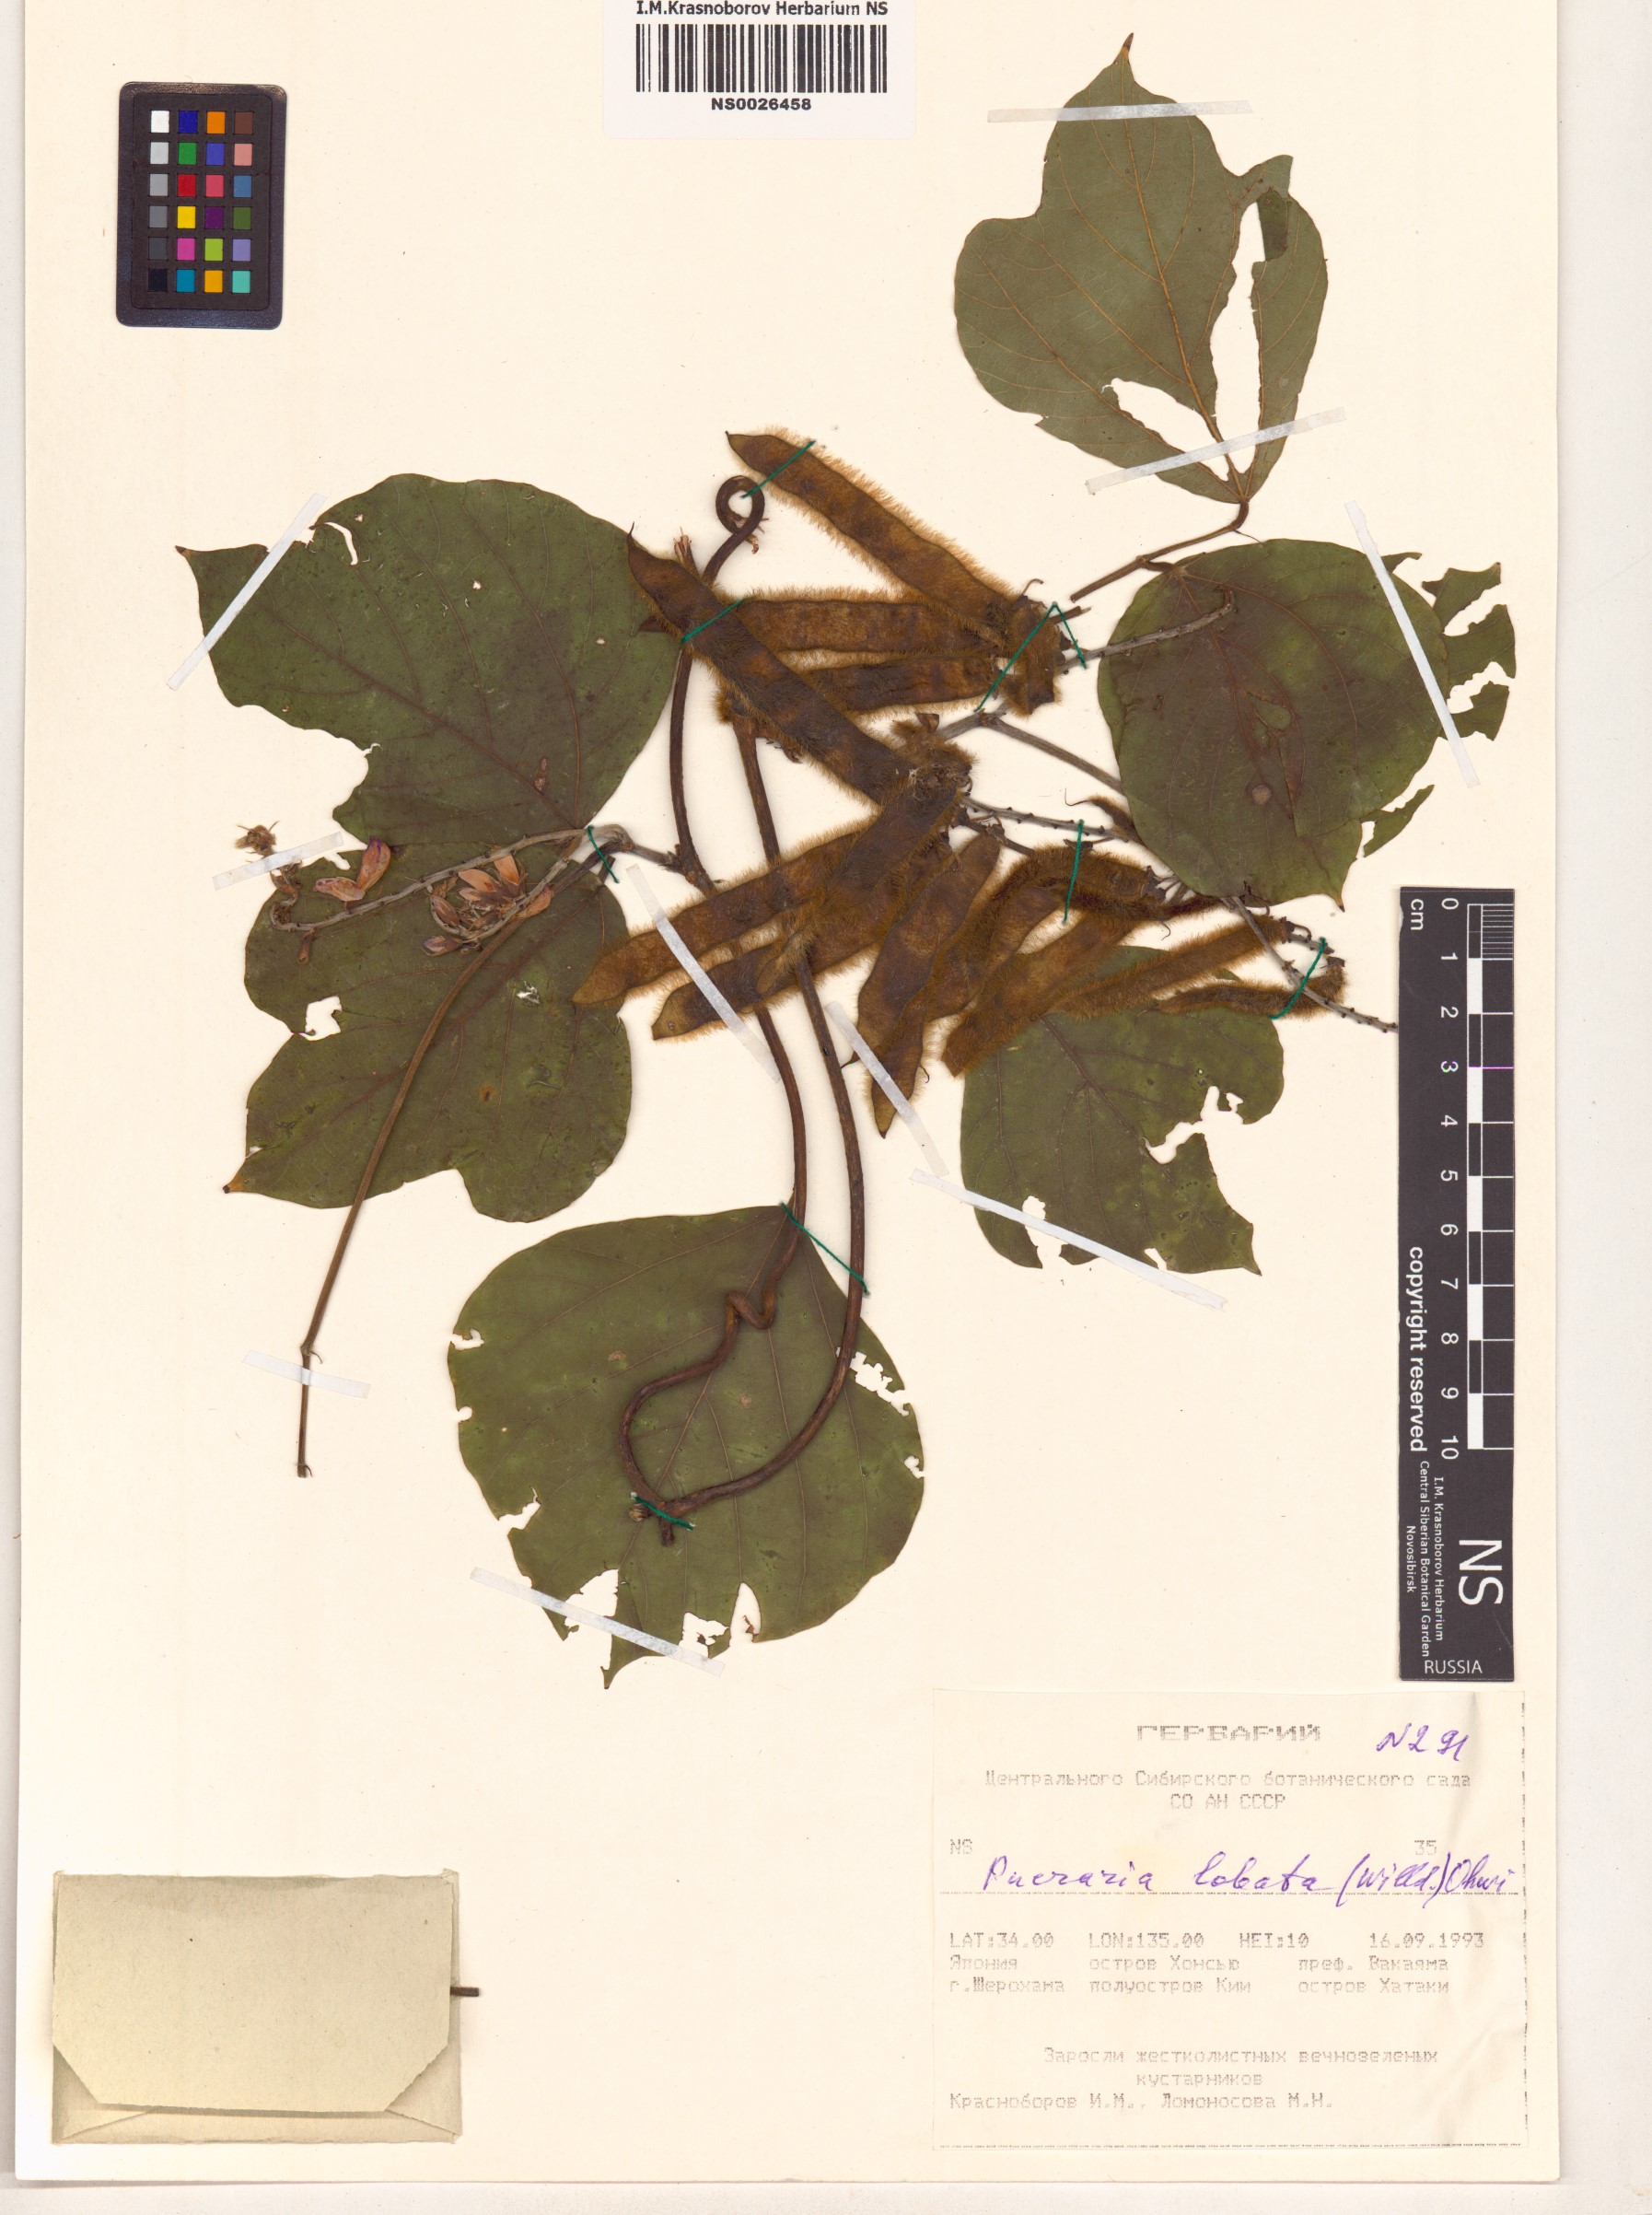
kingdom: Plantae
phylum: Tracheophyta
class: Magnoliopsida
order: Fabales
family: Fabaceae
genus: Pueraria
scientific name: Pueraria montana
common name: Kudzu
